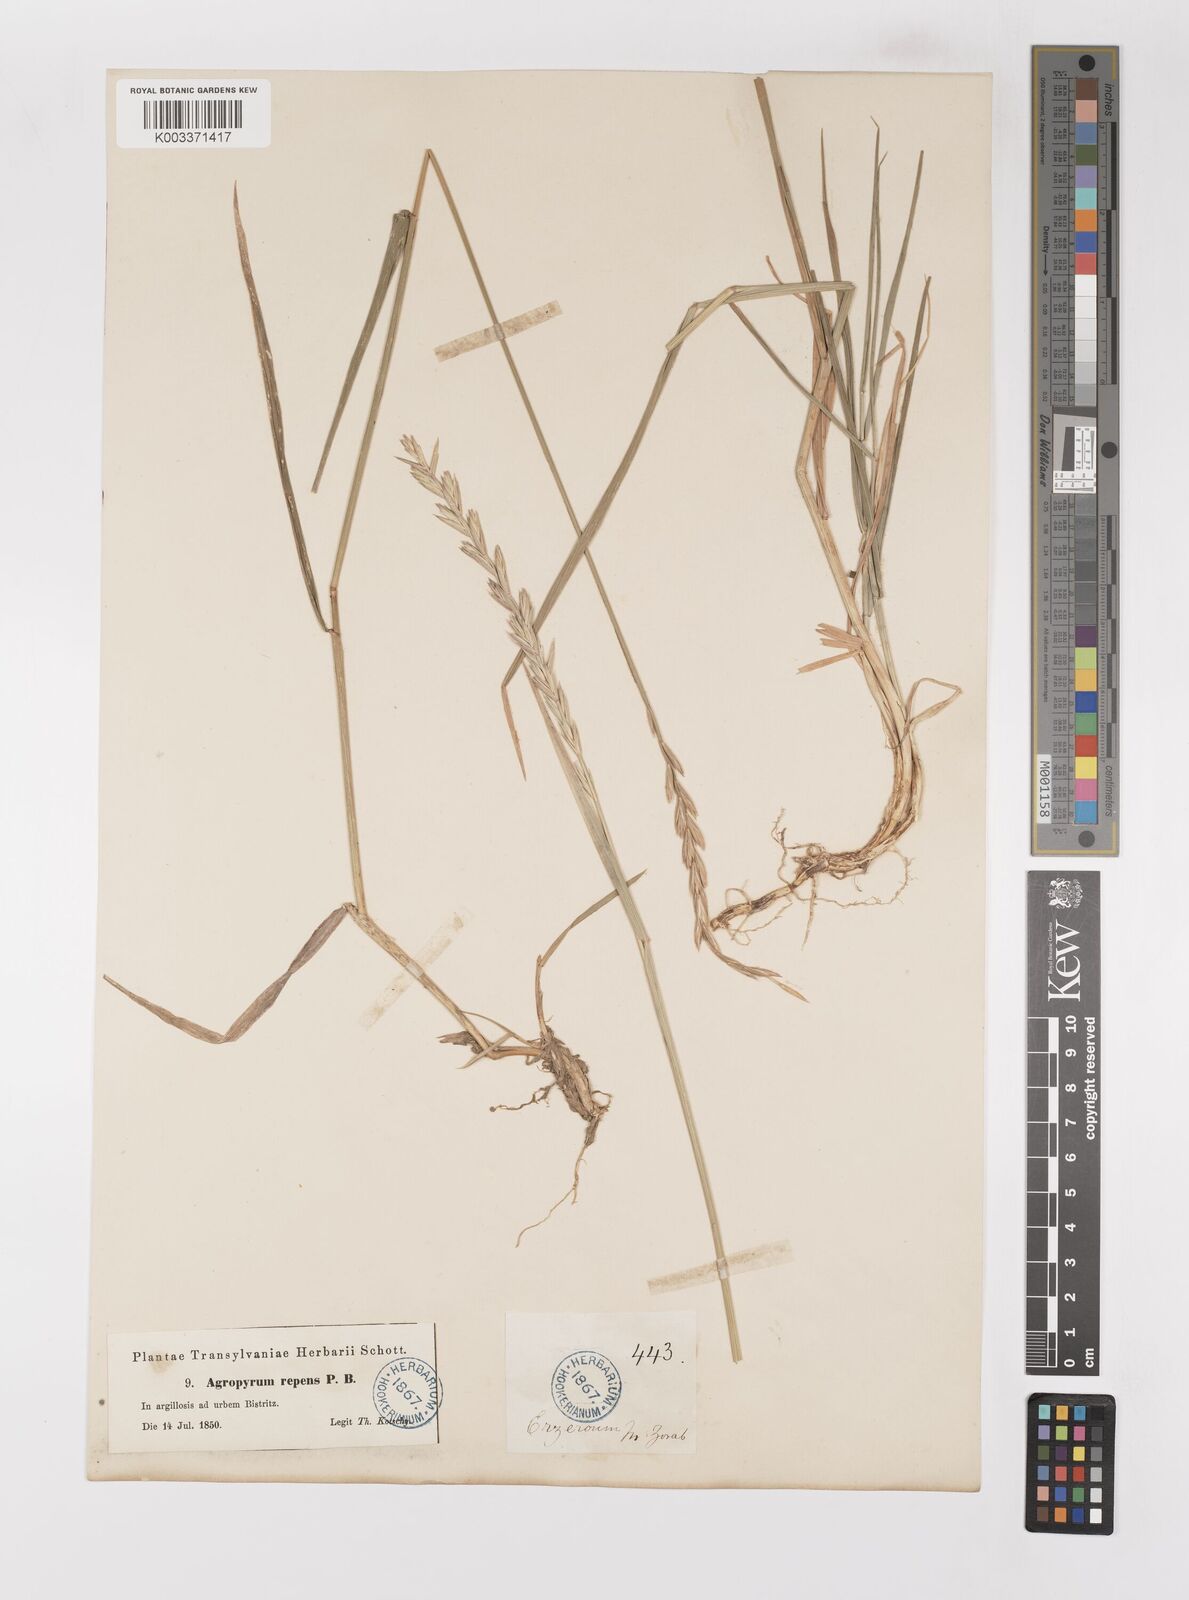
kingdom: Plantae
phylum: Tracheophyta
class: Liliopsida
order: Poales
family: Poaceae
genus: Elymus
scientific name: Elymus repens
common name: Quackgrass
